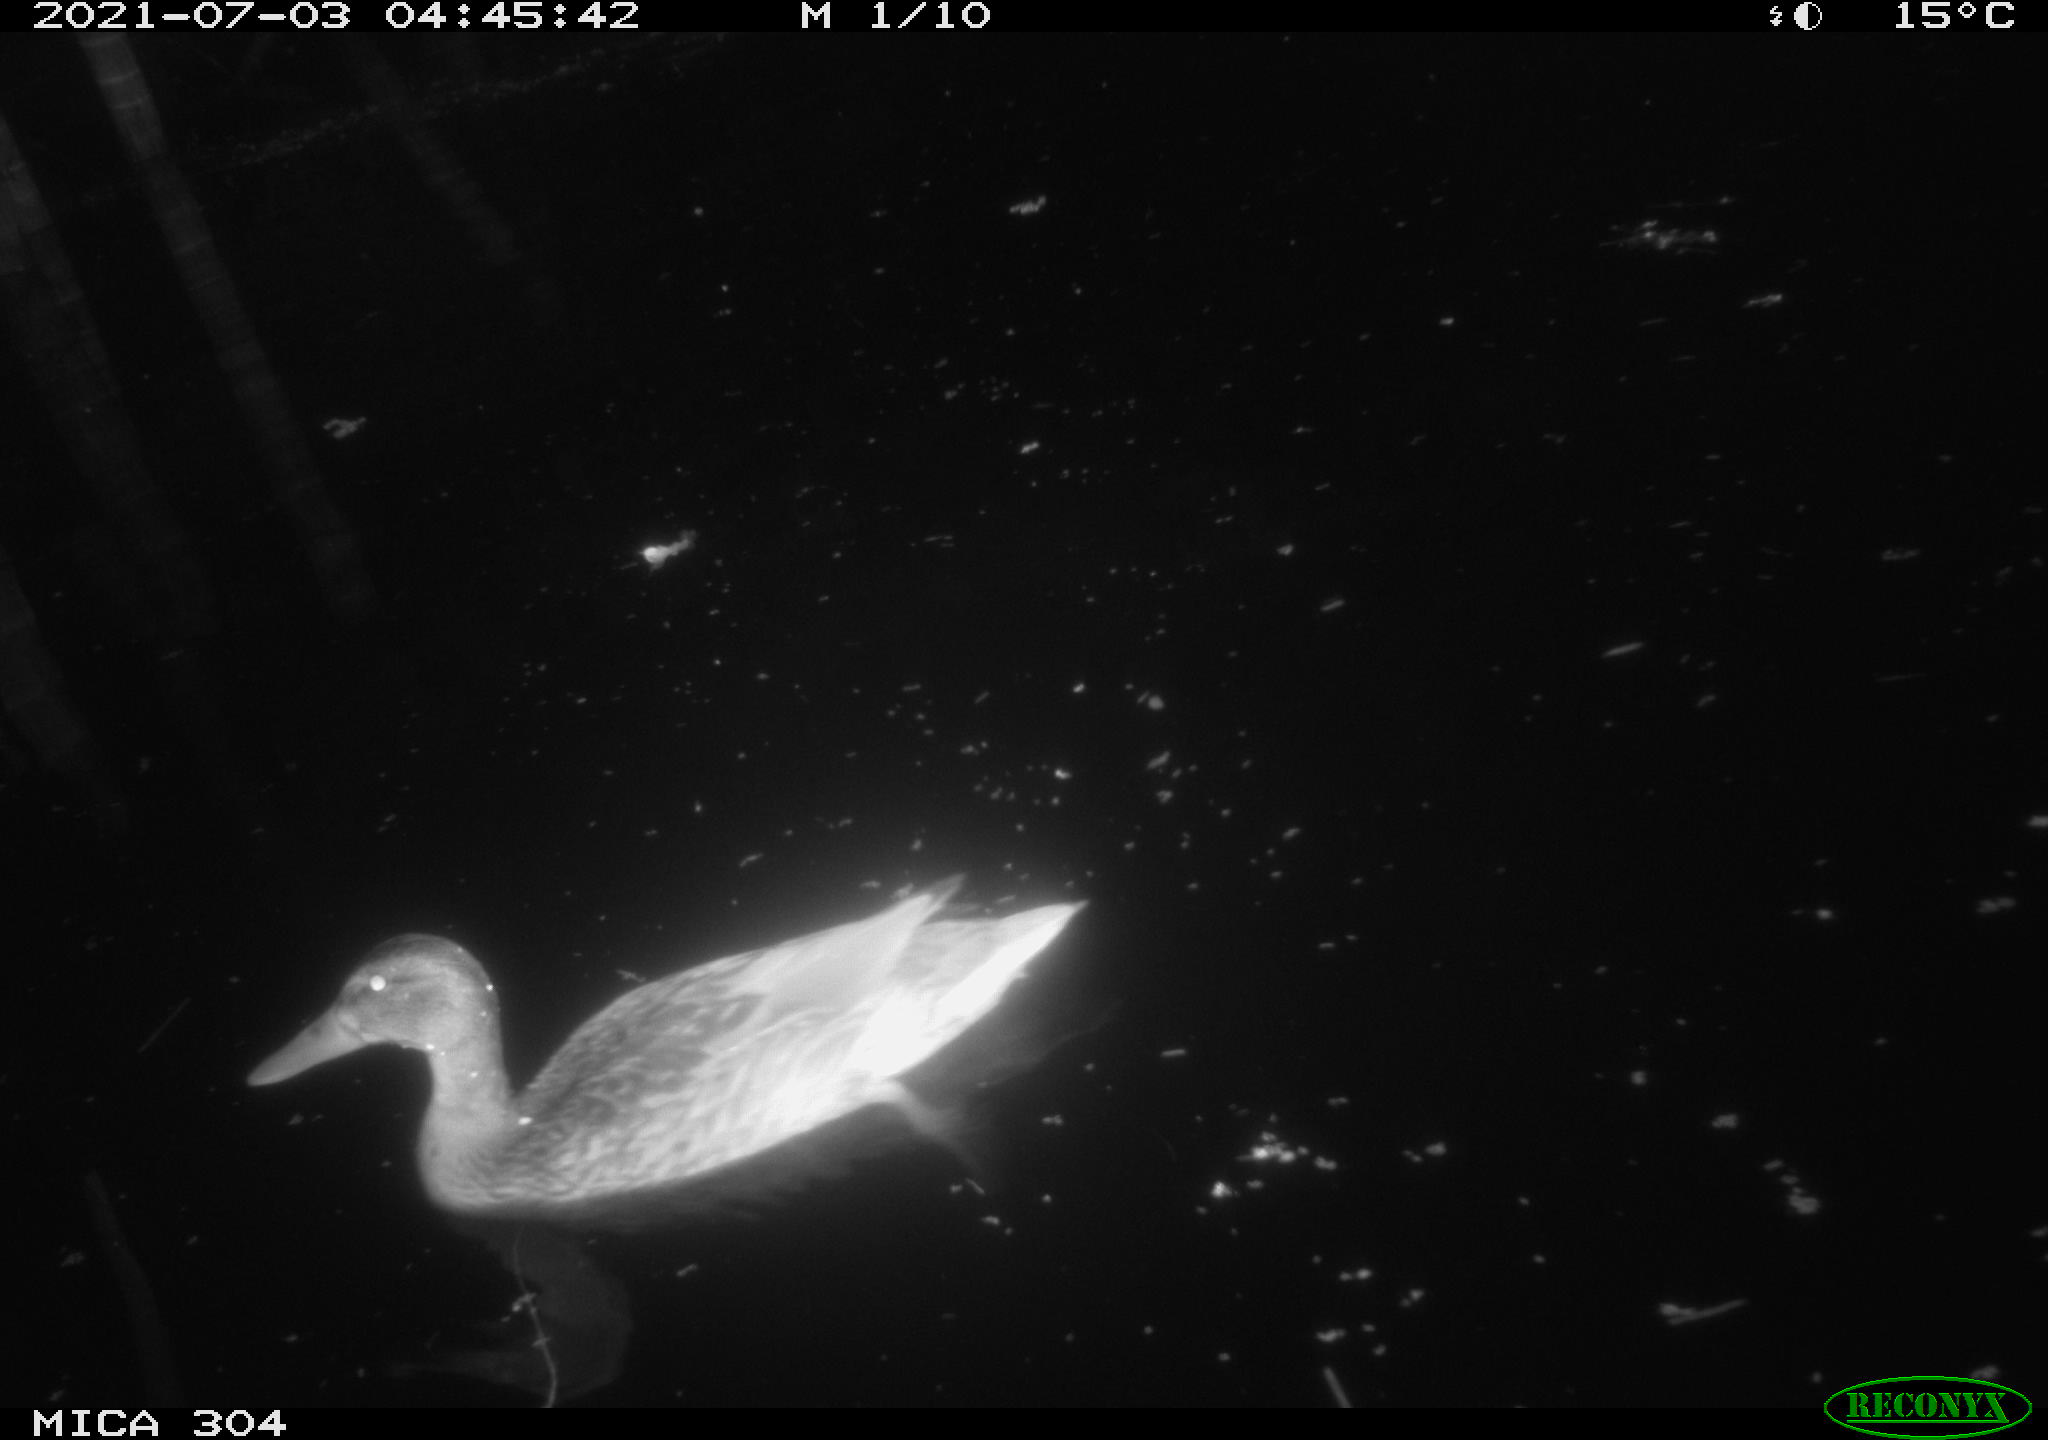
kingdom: Animalia
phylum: Chordata
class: Aves
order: Anseriformes
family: Anatidae
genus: Mareca
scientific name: Mareca strepera
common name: Gadwall
